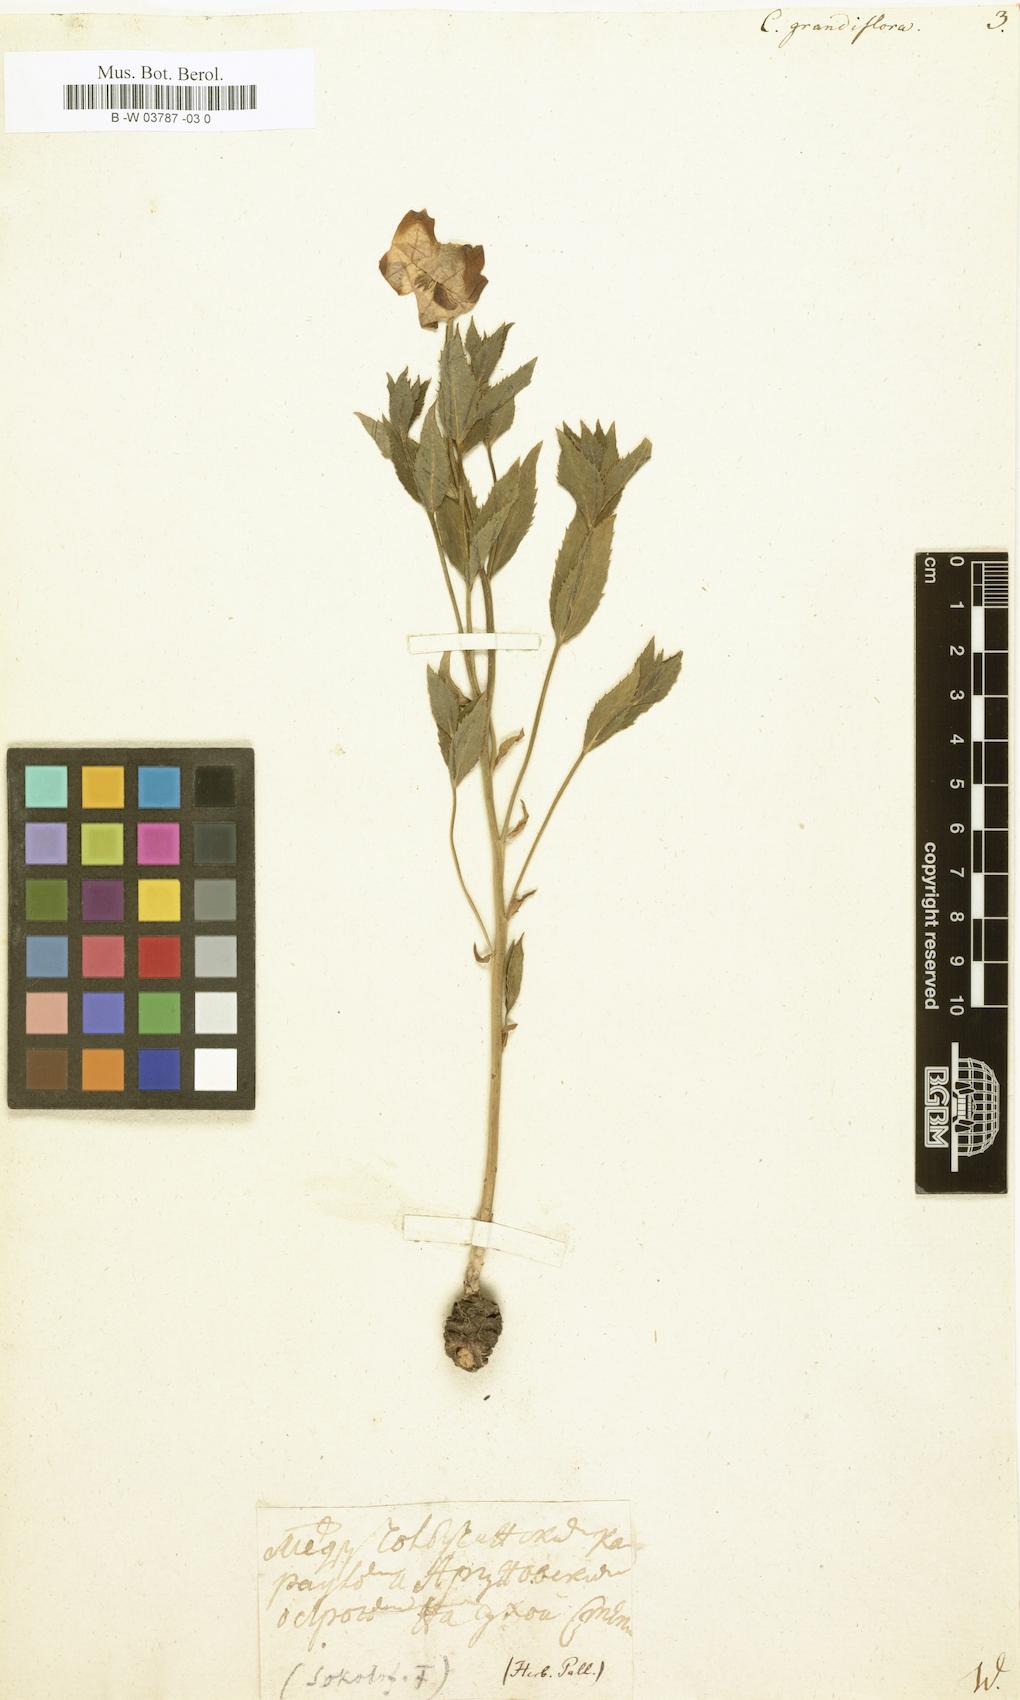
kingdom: Plantae
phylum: Tracheophyta
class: Magnoliopsida
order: Asterales
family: Campanulaceae
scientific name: Campanulaceae
